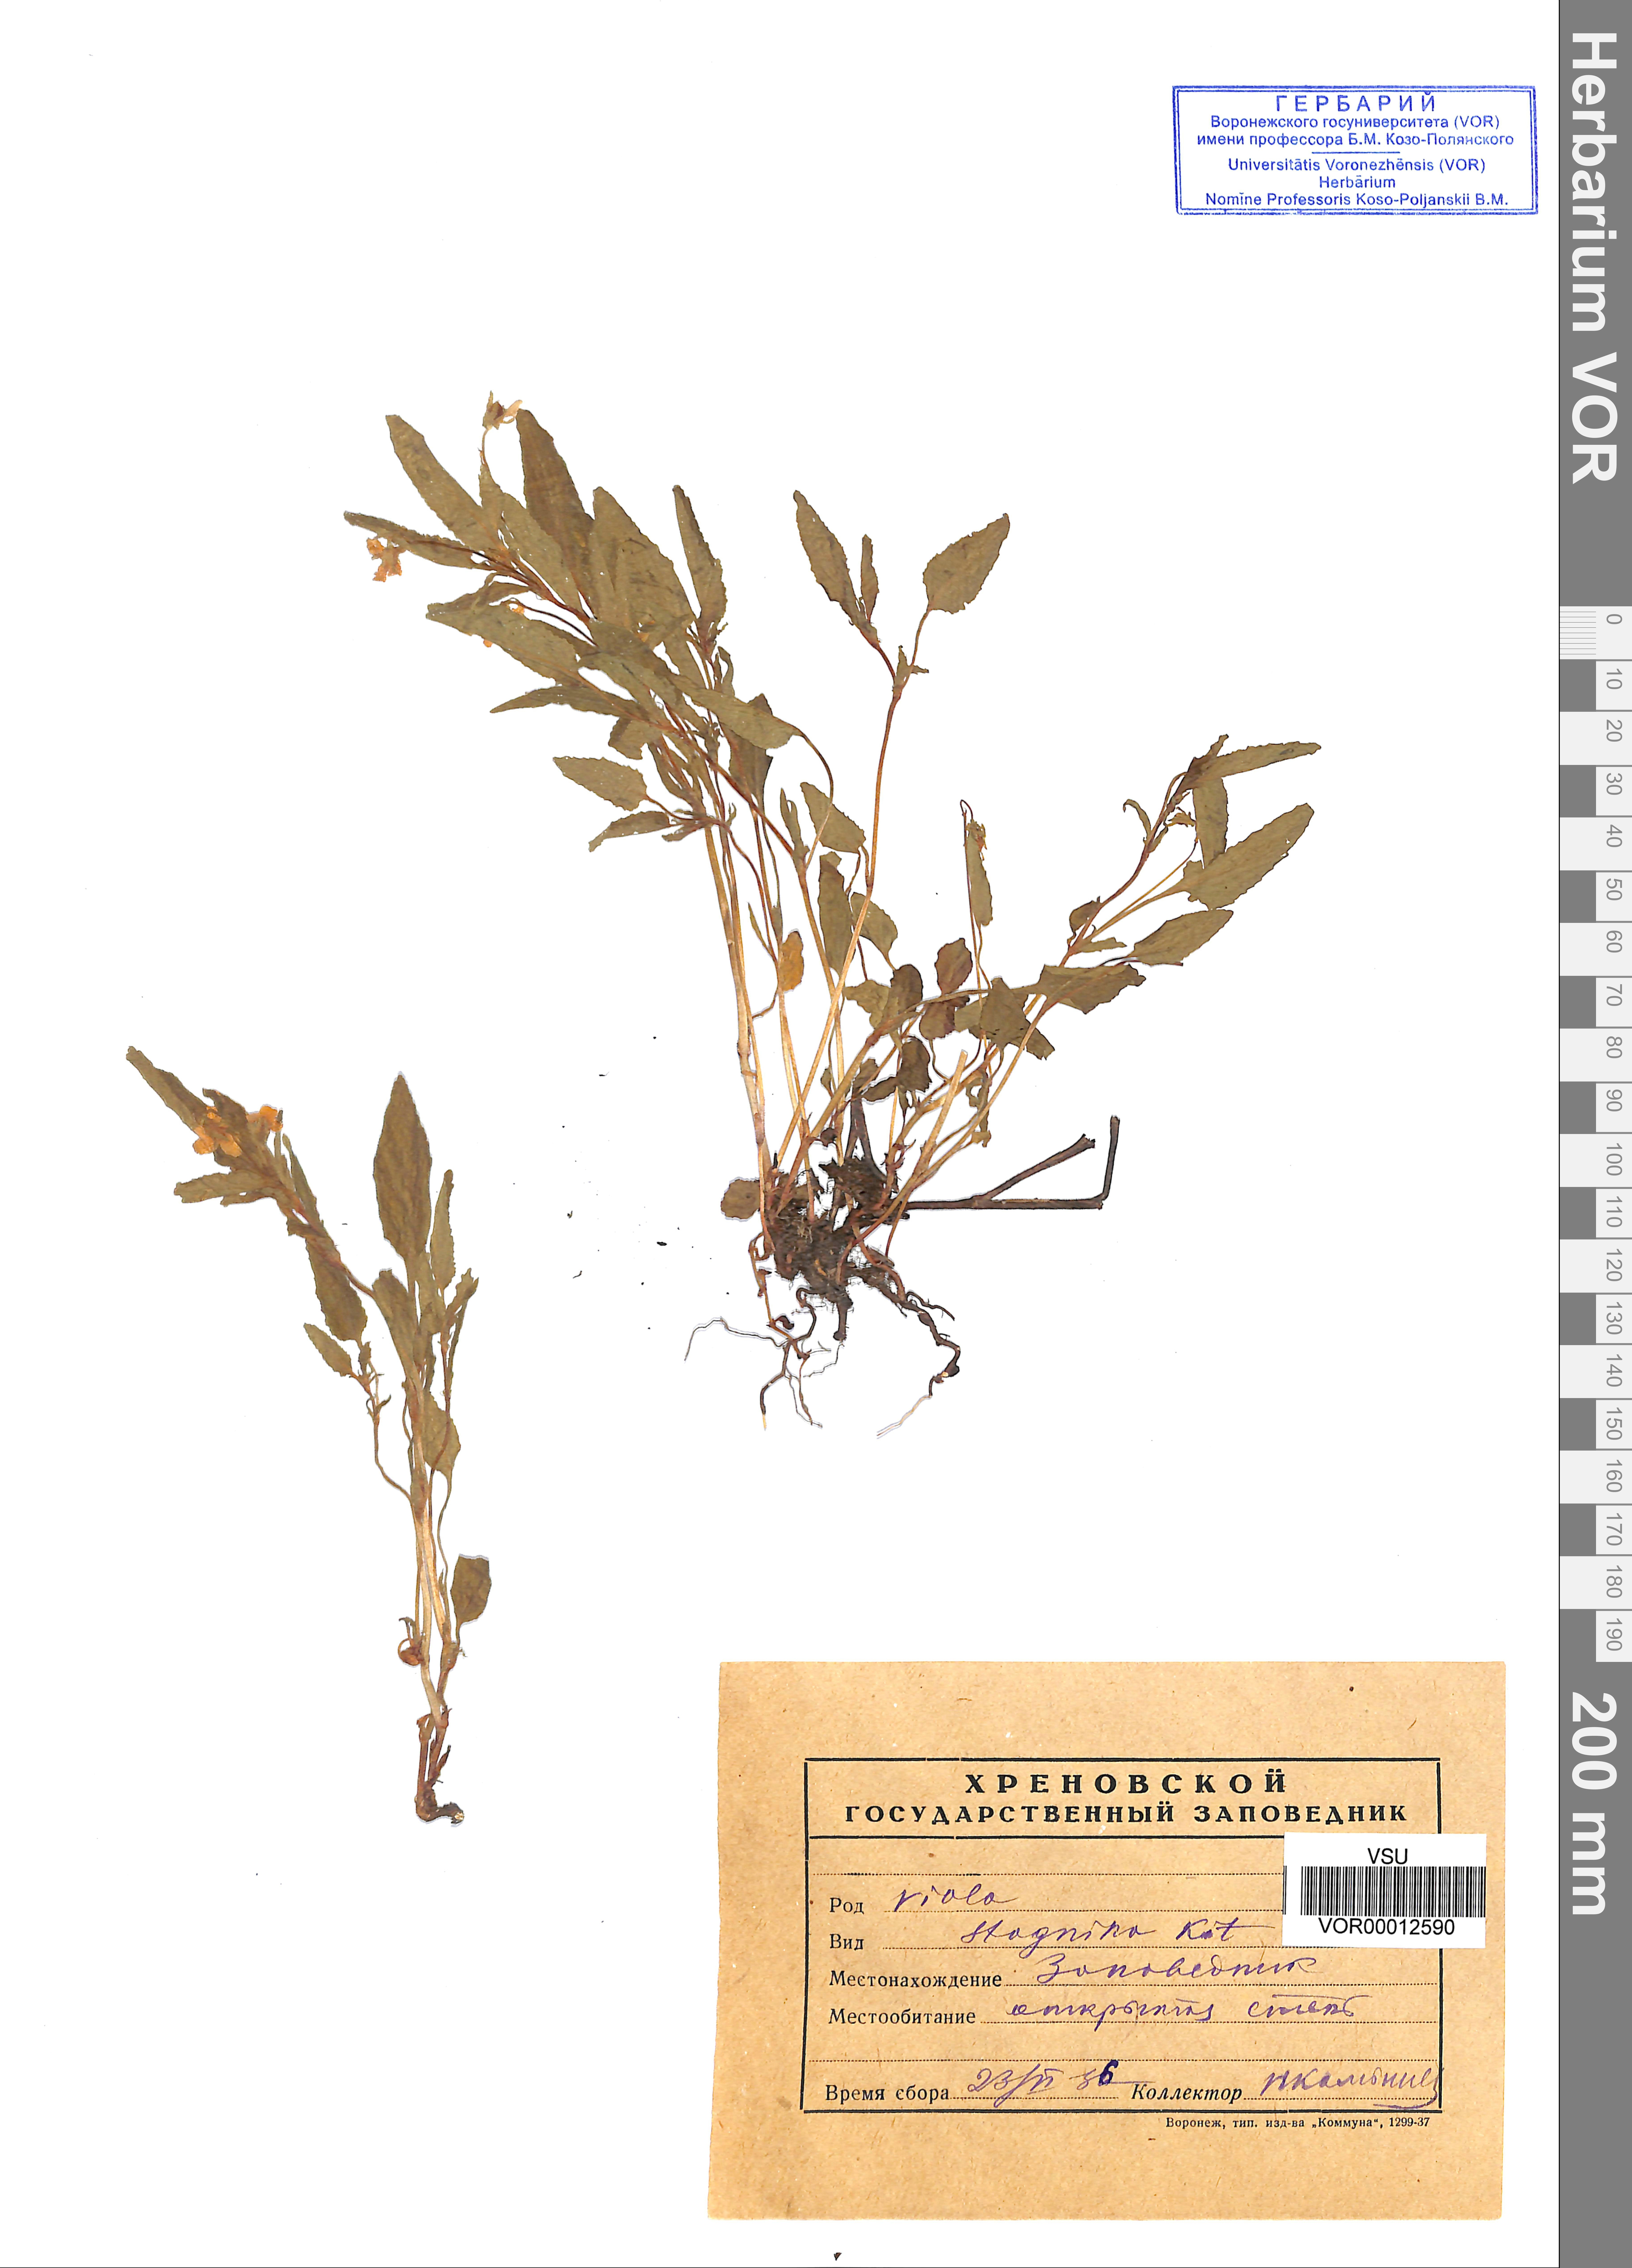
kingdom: Plantae
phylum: Tracheophyta
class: Magnoliopsida
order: Malpighiales
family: Violaceae
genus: Viola
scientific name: Viola stagnina
